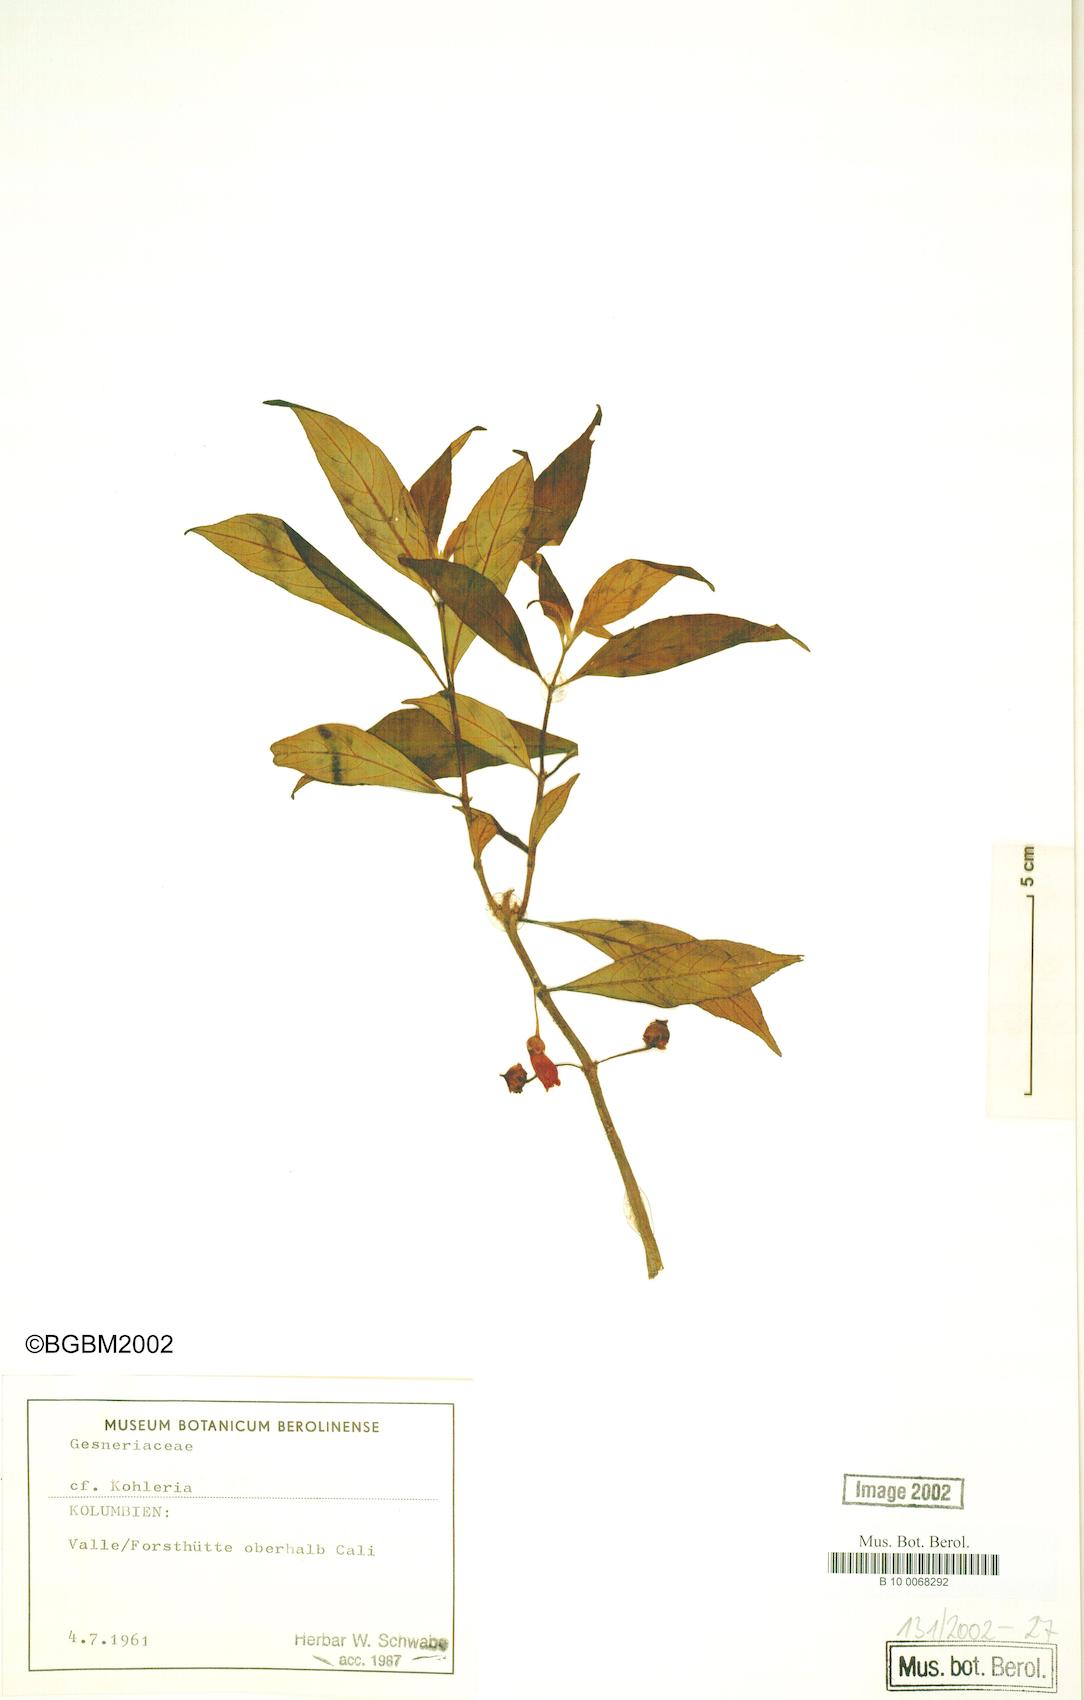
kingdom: Plantae
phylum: Tracheophyta
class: Magnoliopsida
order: Lamiales
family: Gesneriaceae
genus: Kohleria
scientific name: Kohleria
